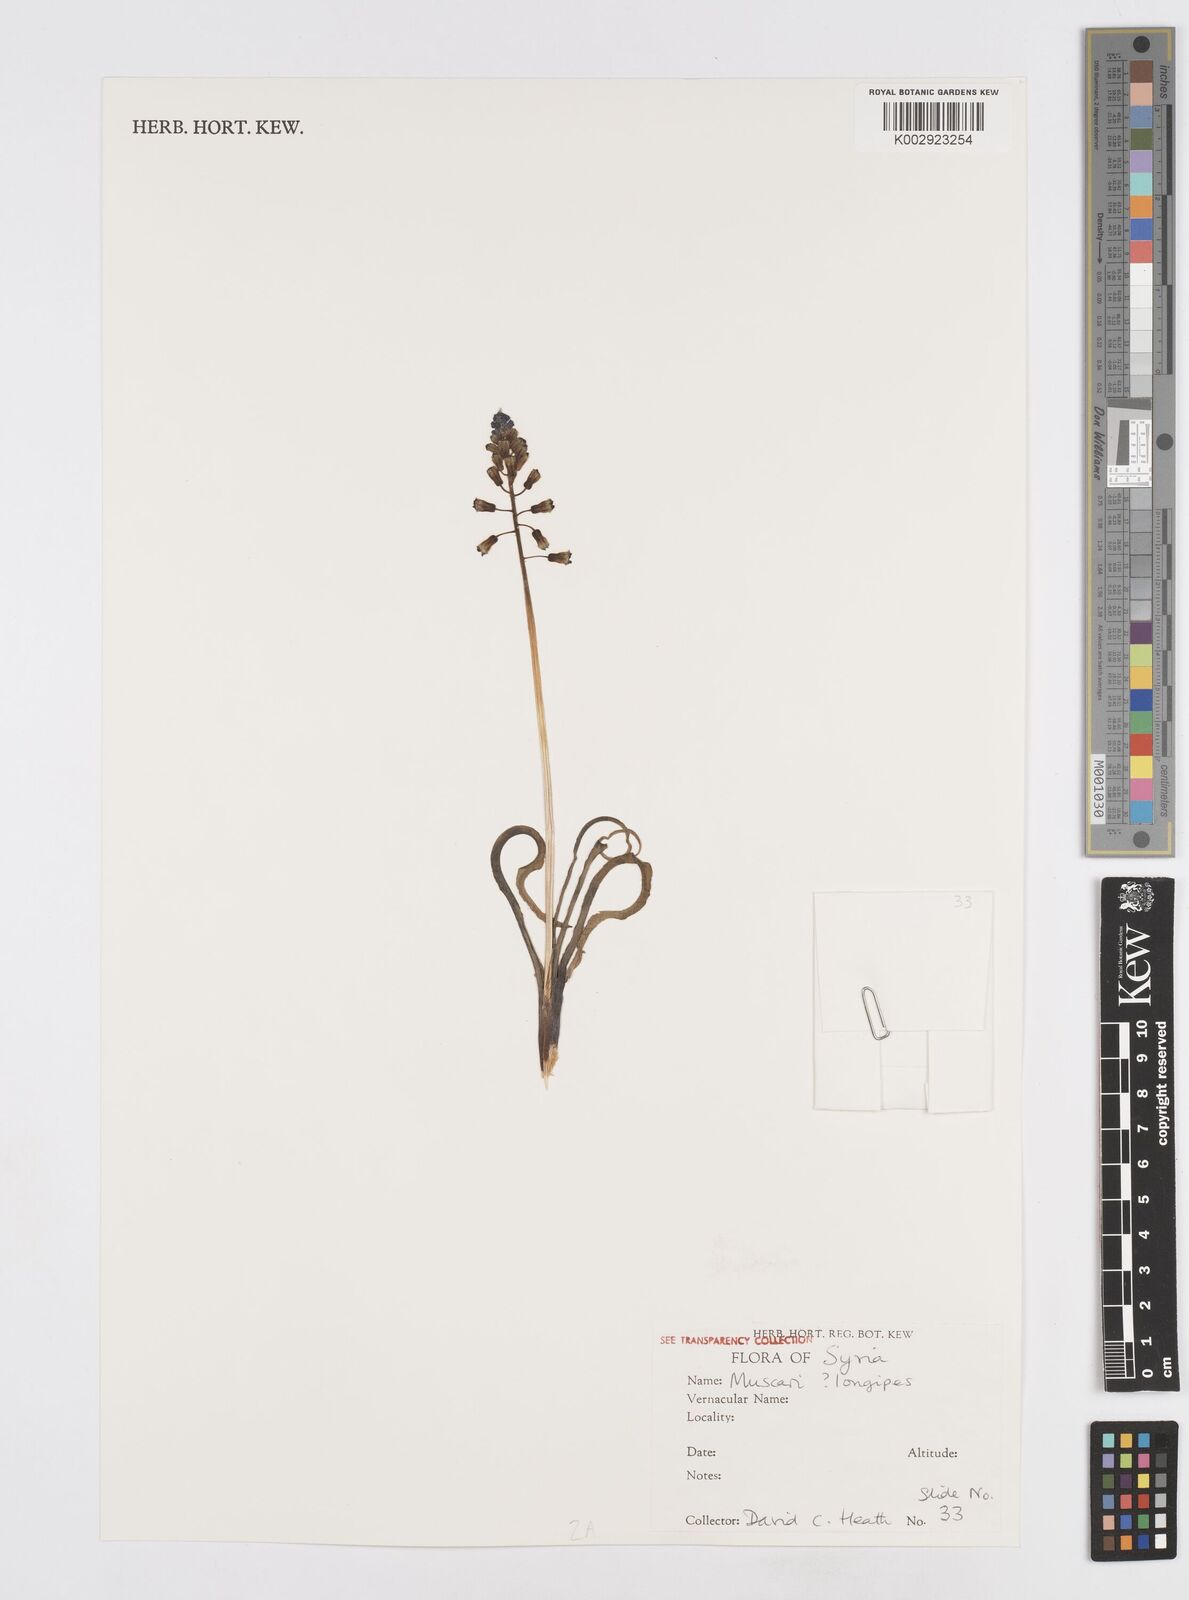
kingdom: Plantae
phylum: Tracheophyta
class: Liliopsida
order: Asparagales
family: Asparagaceae
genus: Muscari
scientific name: Muscari longipes
